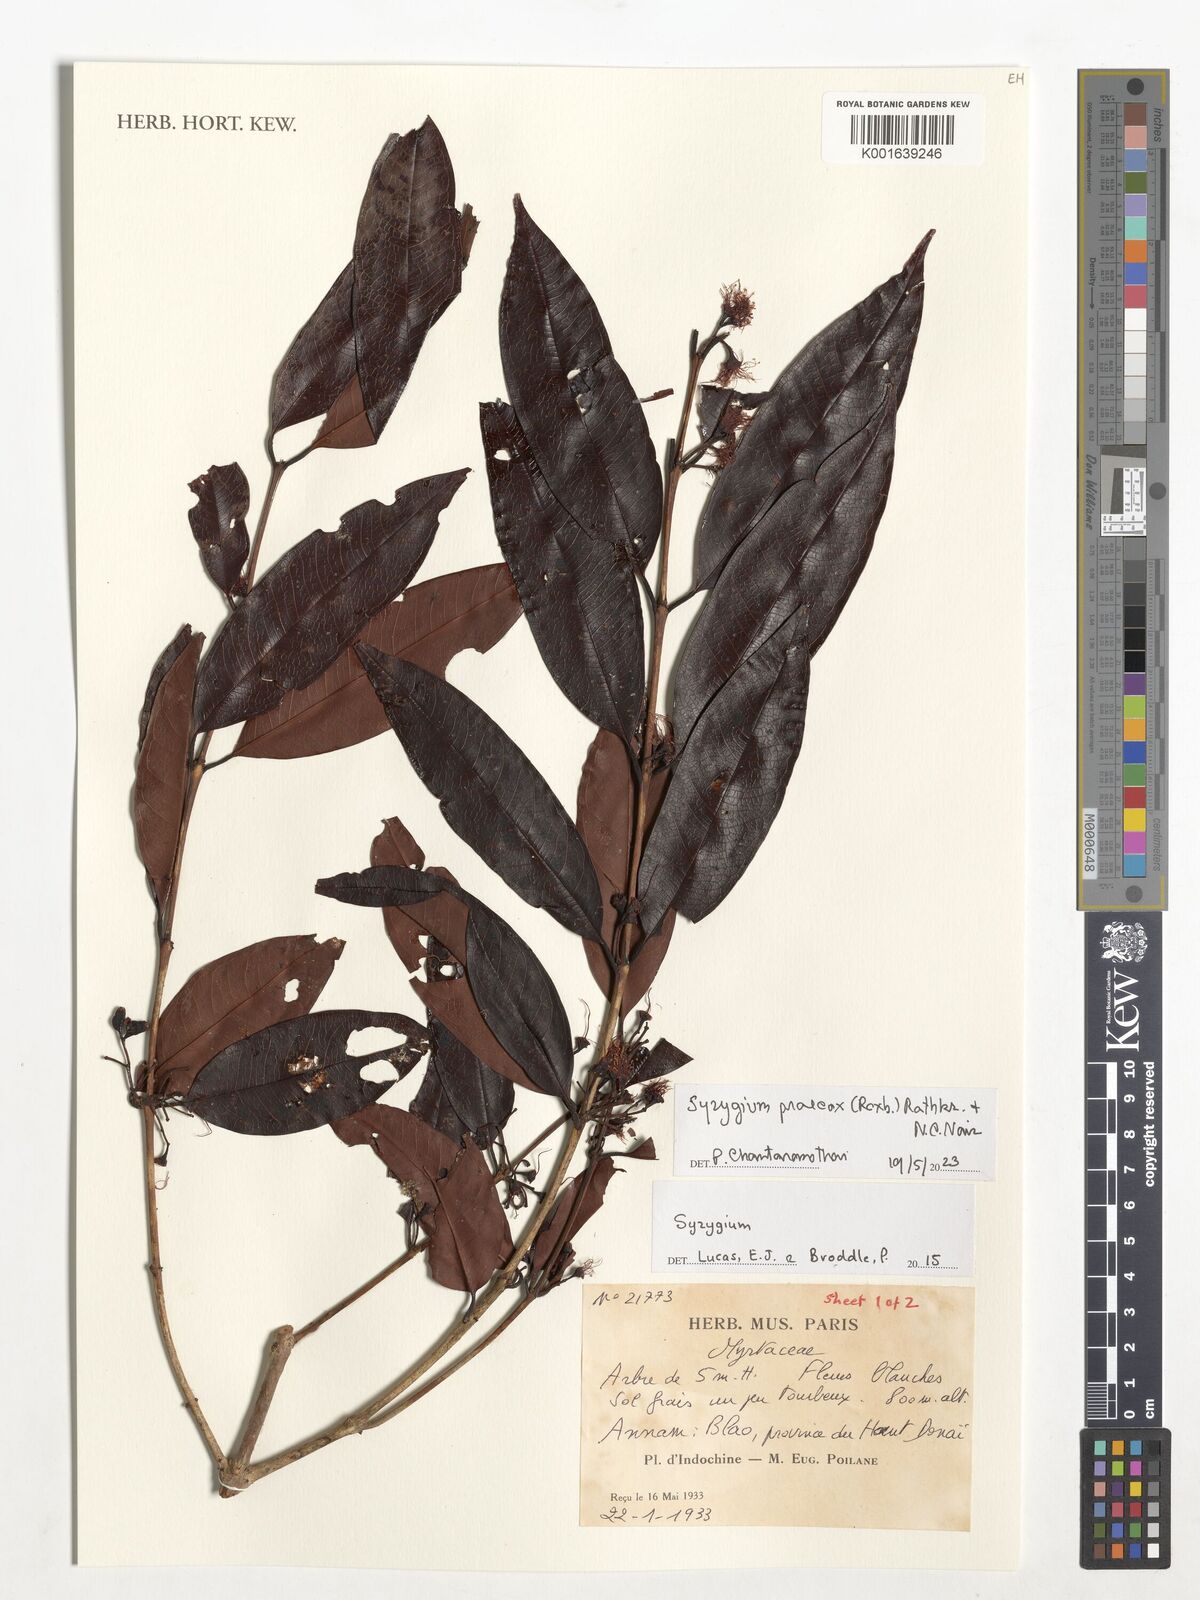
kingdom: Plantae
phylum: Tracheophyta
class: Magnoliopsida
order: Myrtales
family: Myrtaceae
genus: Syzygium
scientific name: Syzygium praecox
